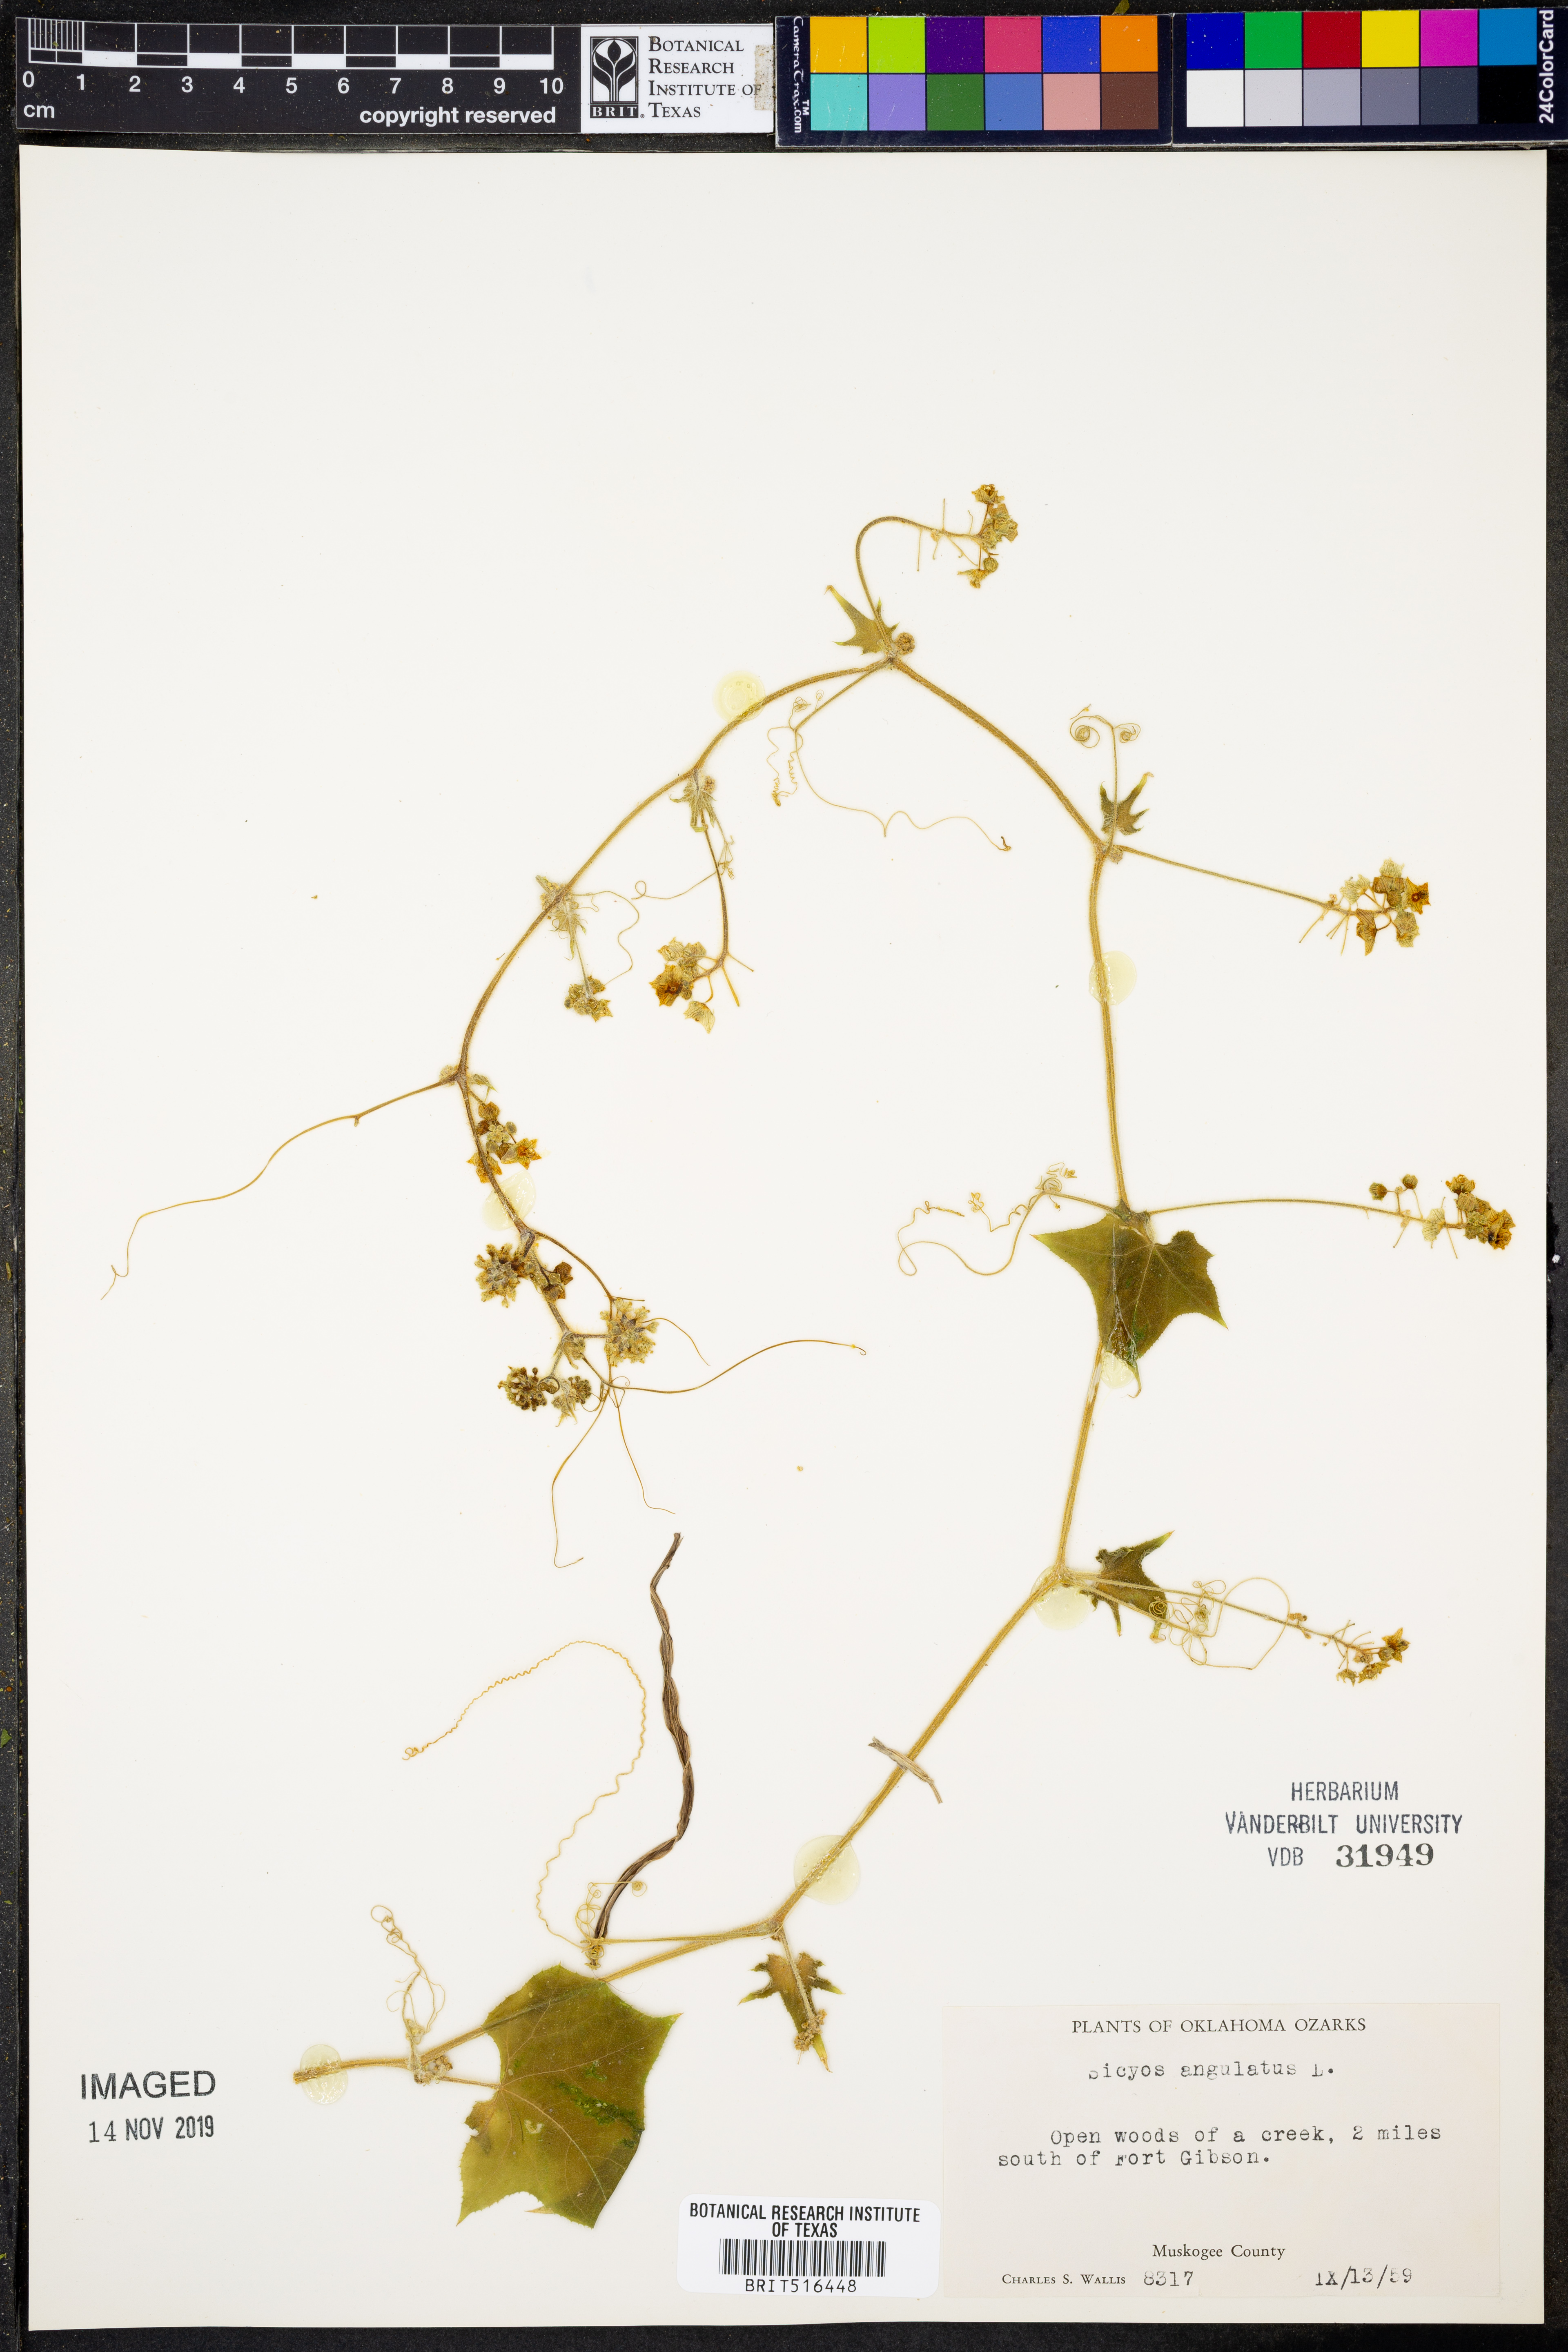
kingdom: Plantae
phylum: Tracheophyta
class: Magnoliopsida
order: Cucurbitales
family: Cucurbitaceae
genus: Sicyos
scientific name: Sicyos angulatus
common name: Angled burr cucumber
